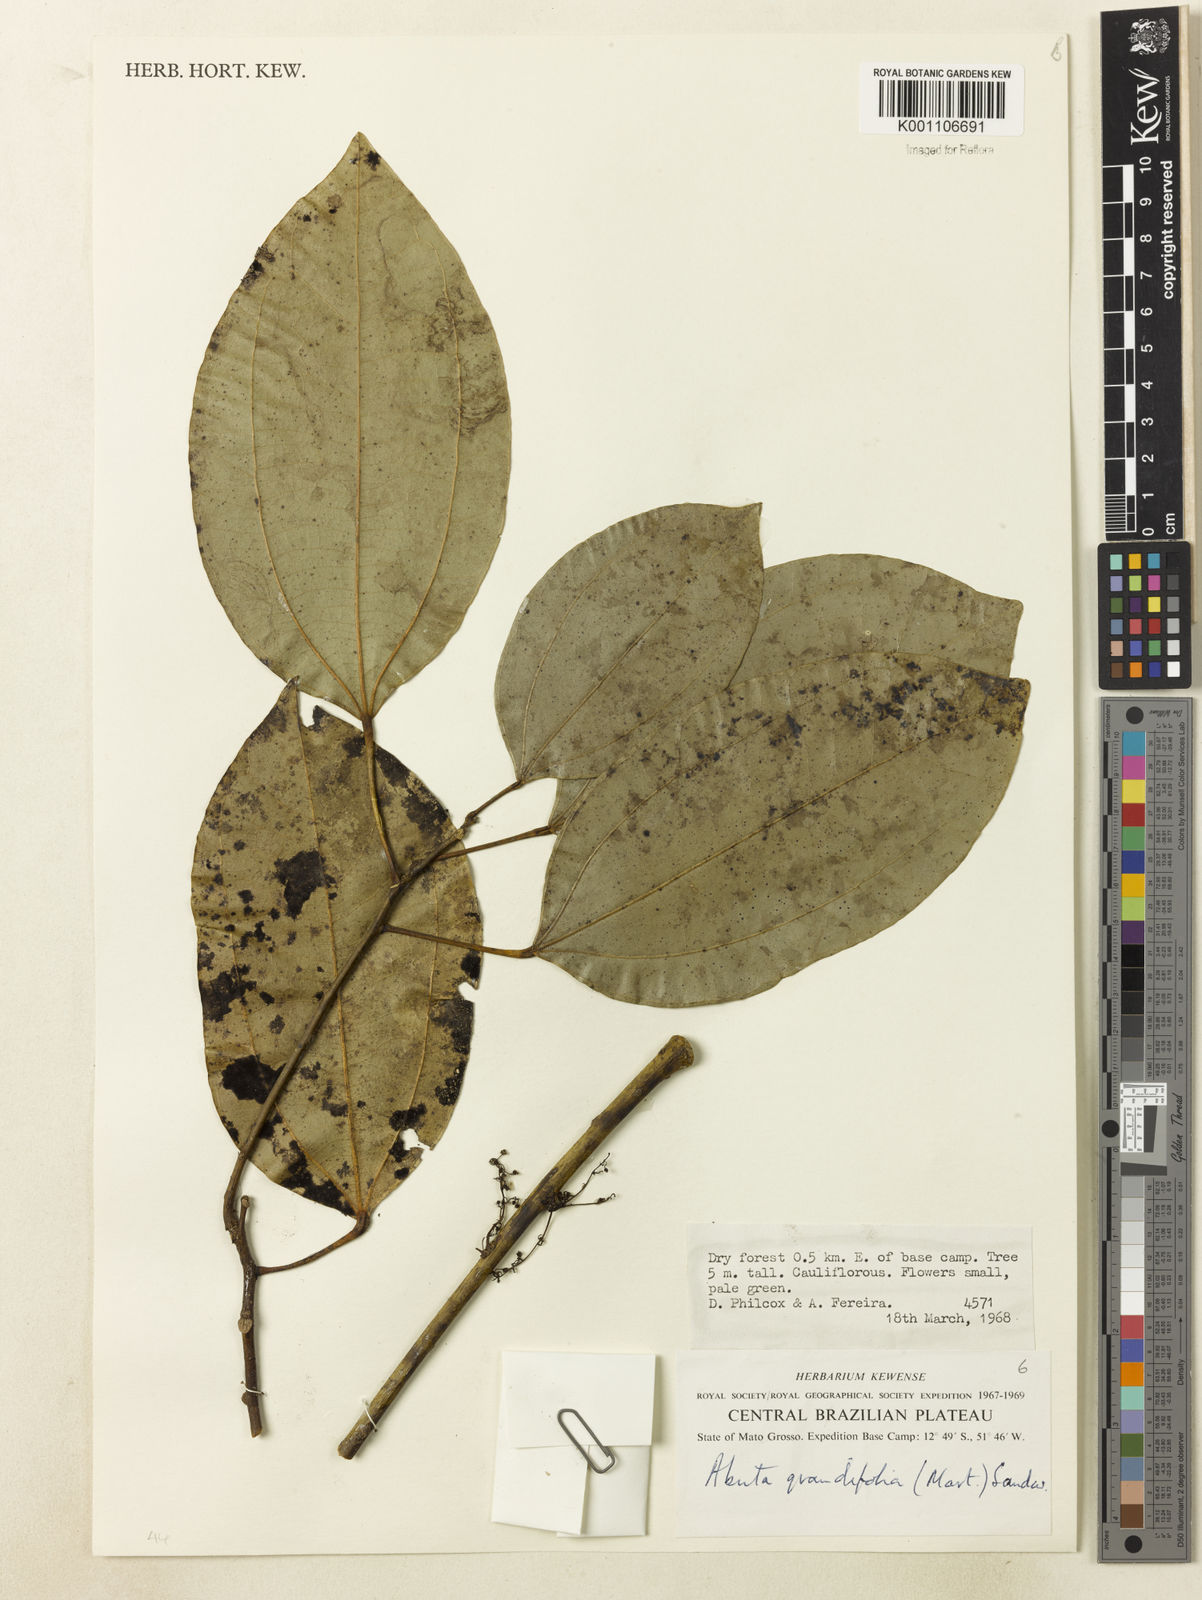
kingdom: Plantae
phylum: Tracheophyta
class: Magnoliopsida
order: Ranunculales
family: Menispermaceae
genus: Abuta
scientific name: Abuta grandifolia
